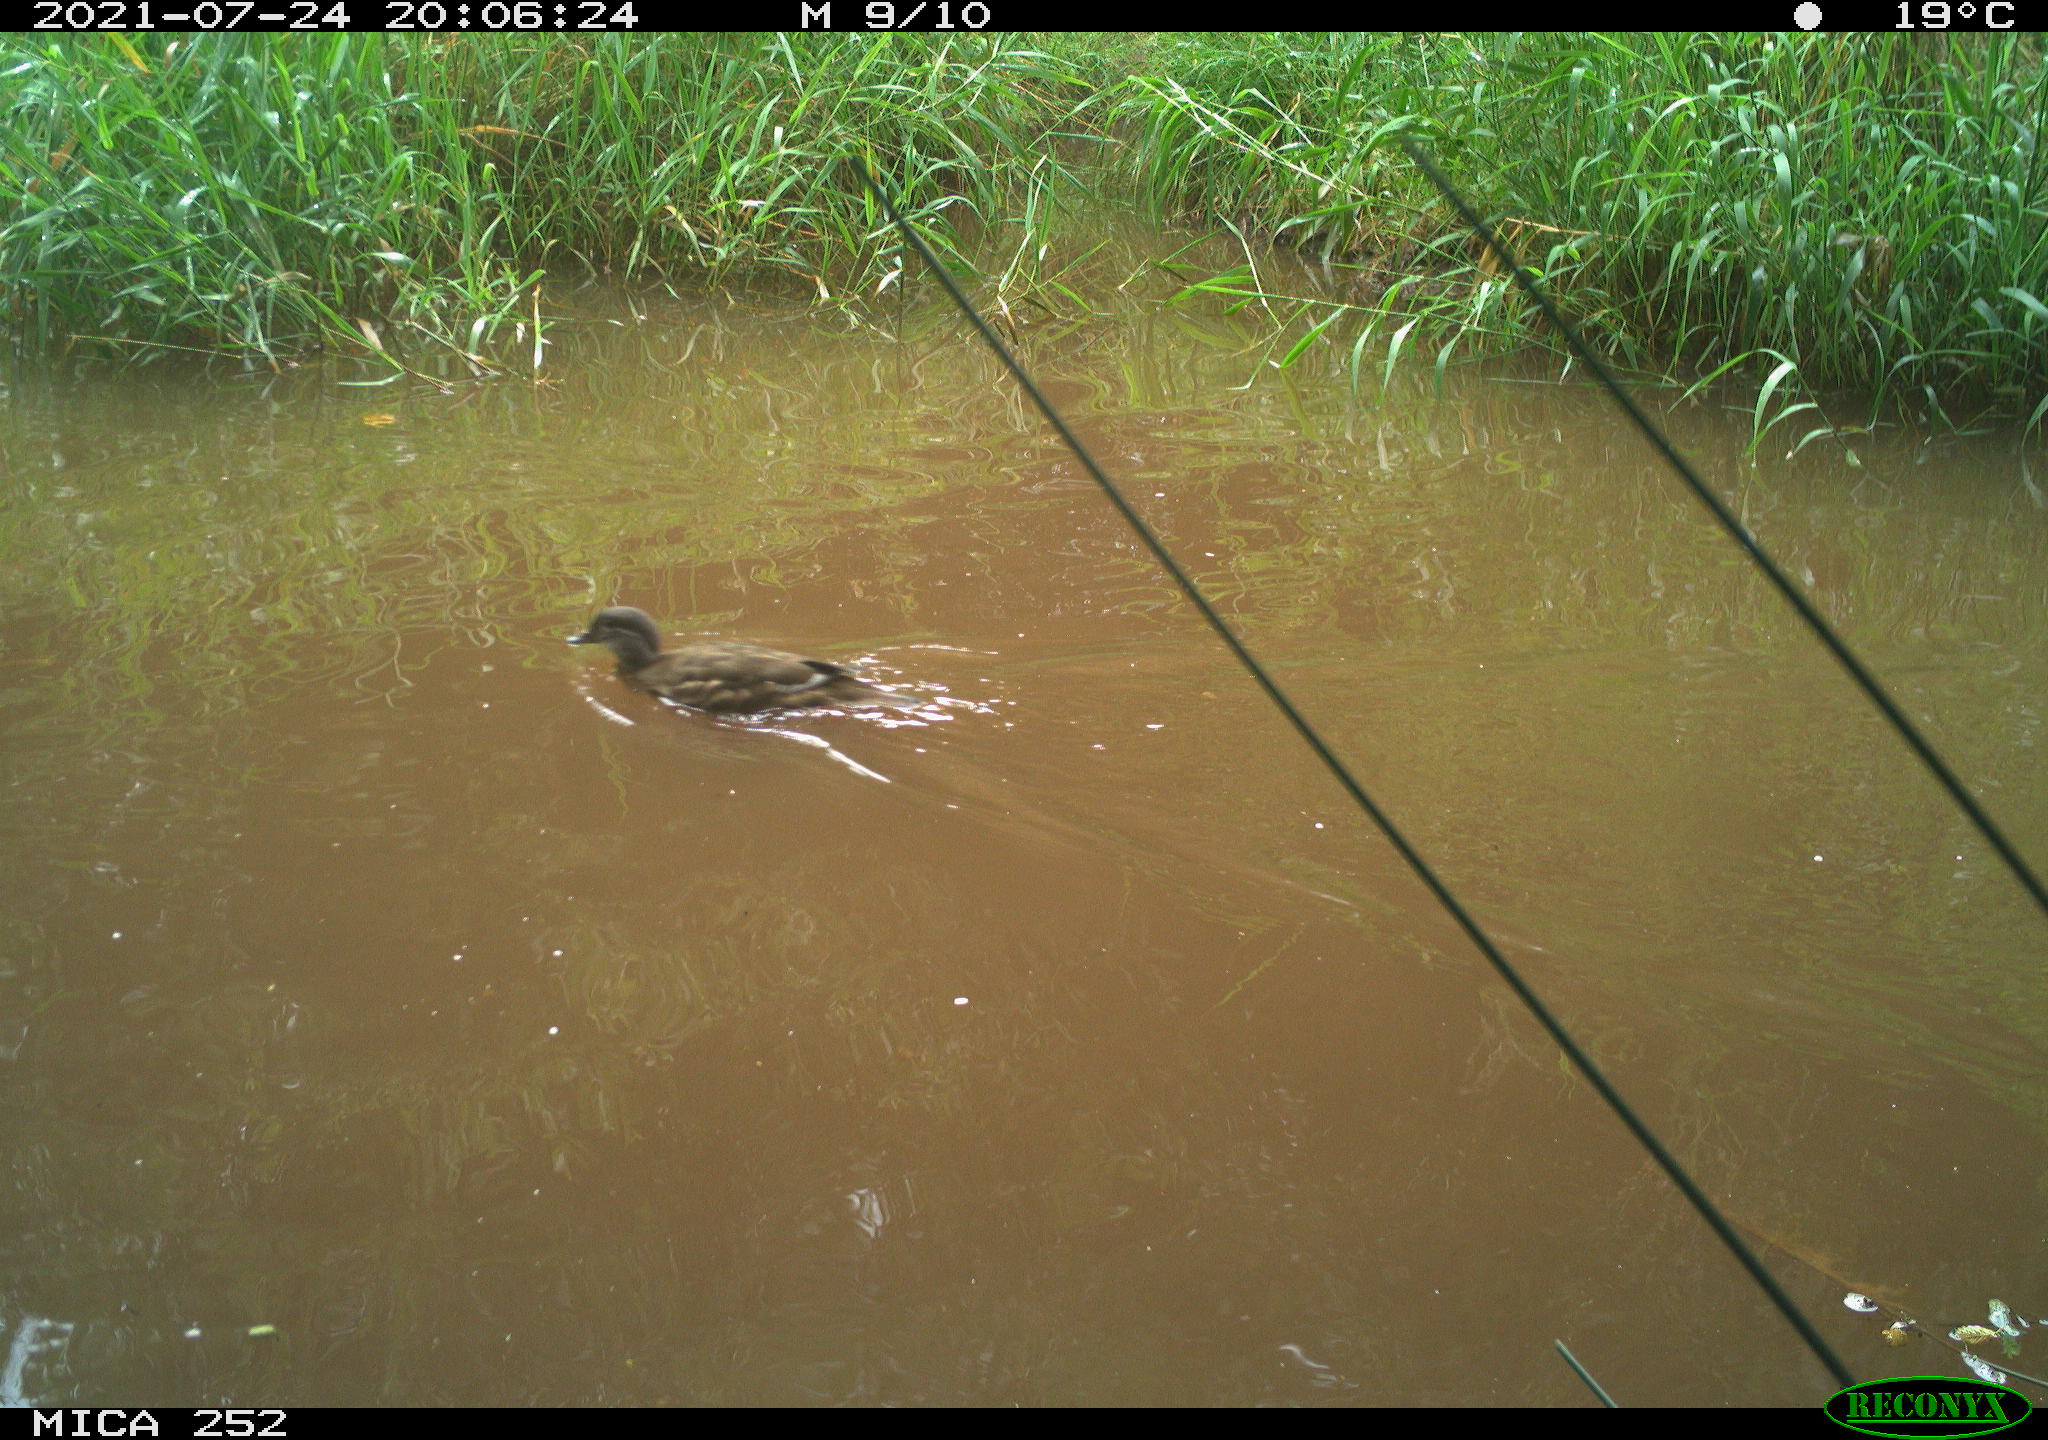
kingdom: Animalia
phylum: Chordata
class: Aves
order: Anseriformes
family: Anatidae
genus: Anas
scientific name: Anas
